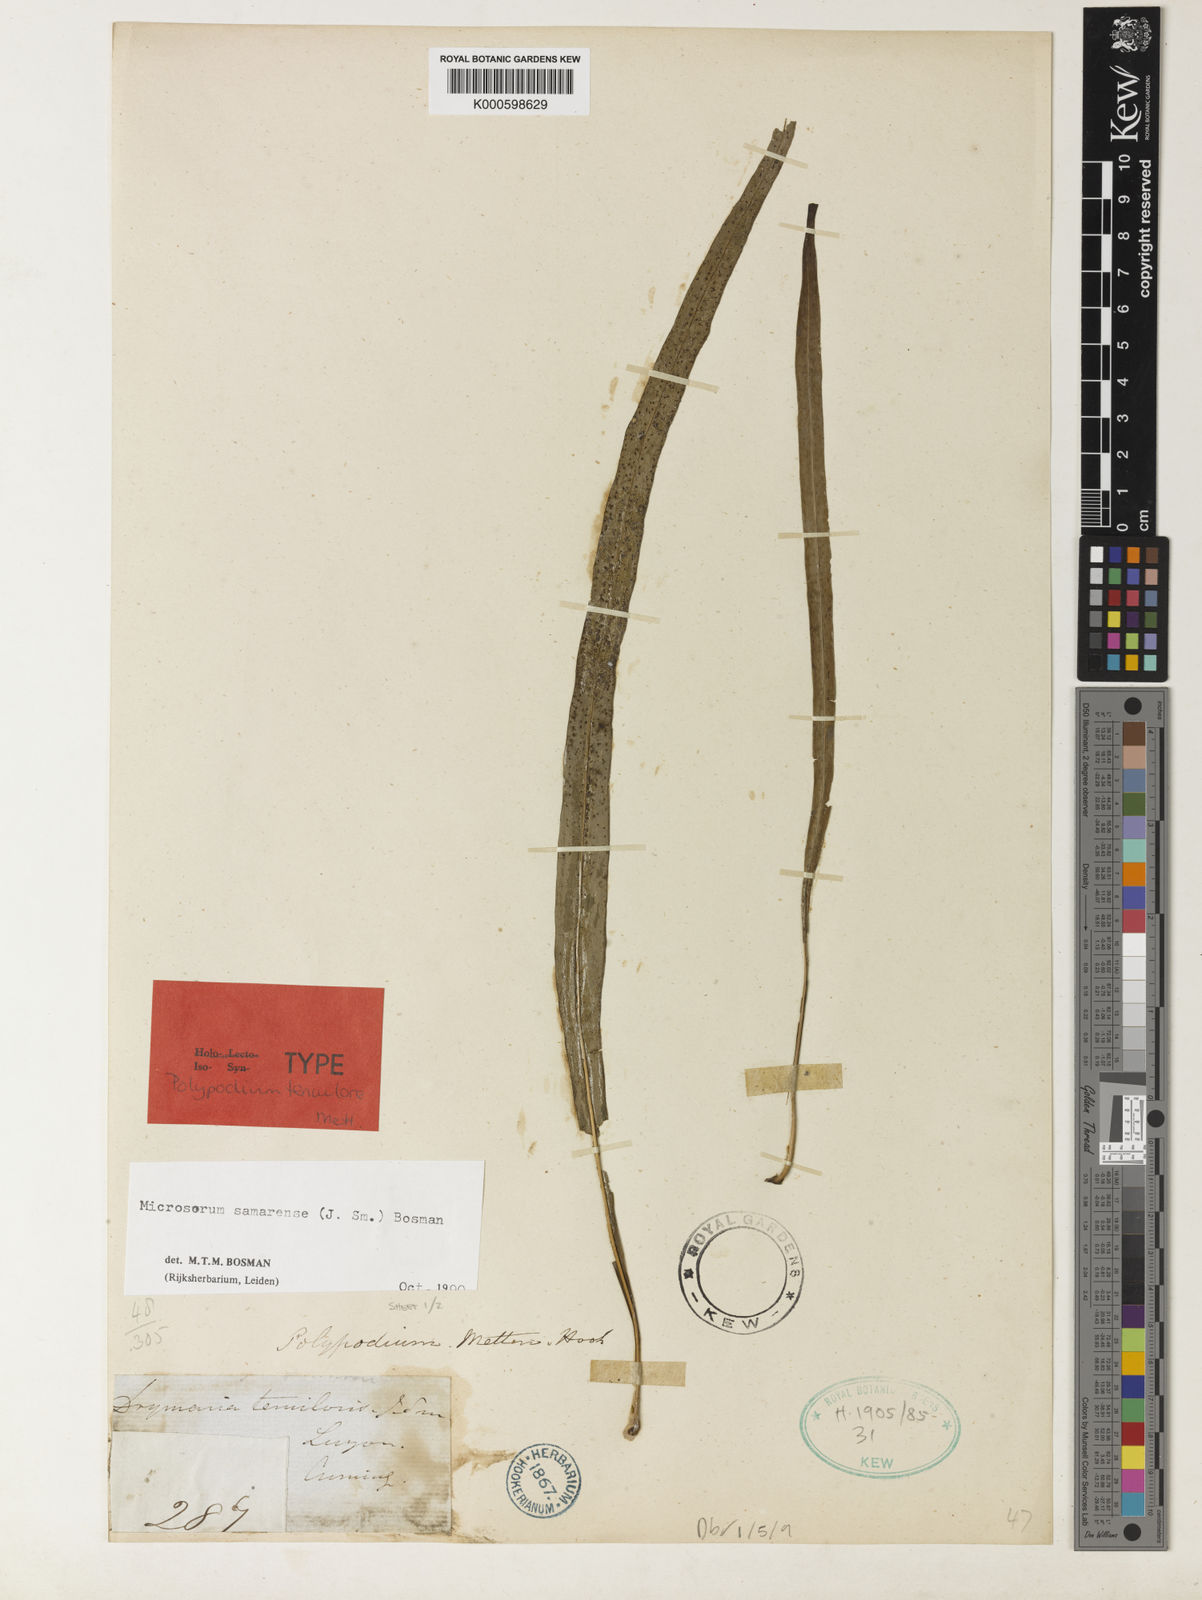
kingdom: Plantae
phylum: Tracheophyta
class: Polypodiopsida
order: Polypodiales
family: Polypodiaceae
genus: Microsorum
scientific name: Microsorum samarense
